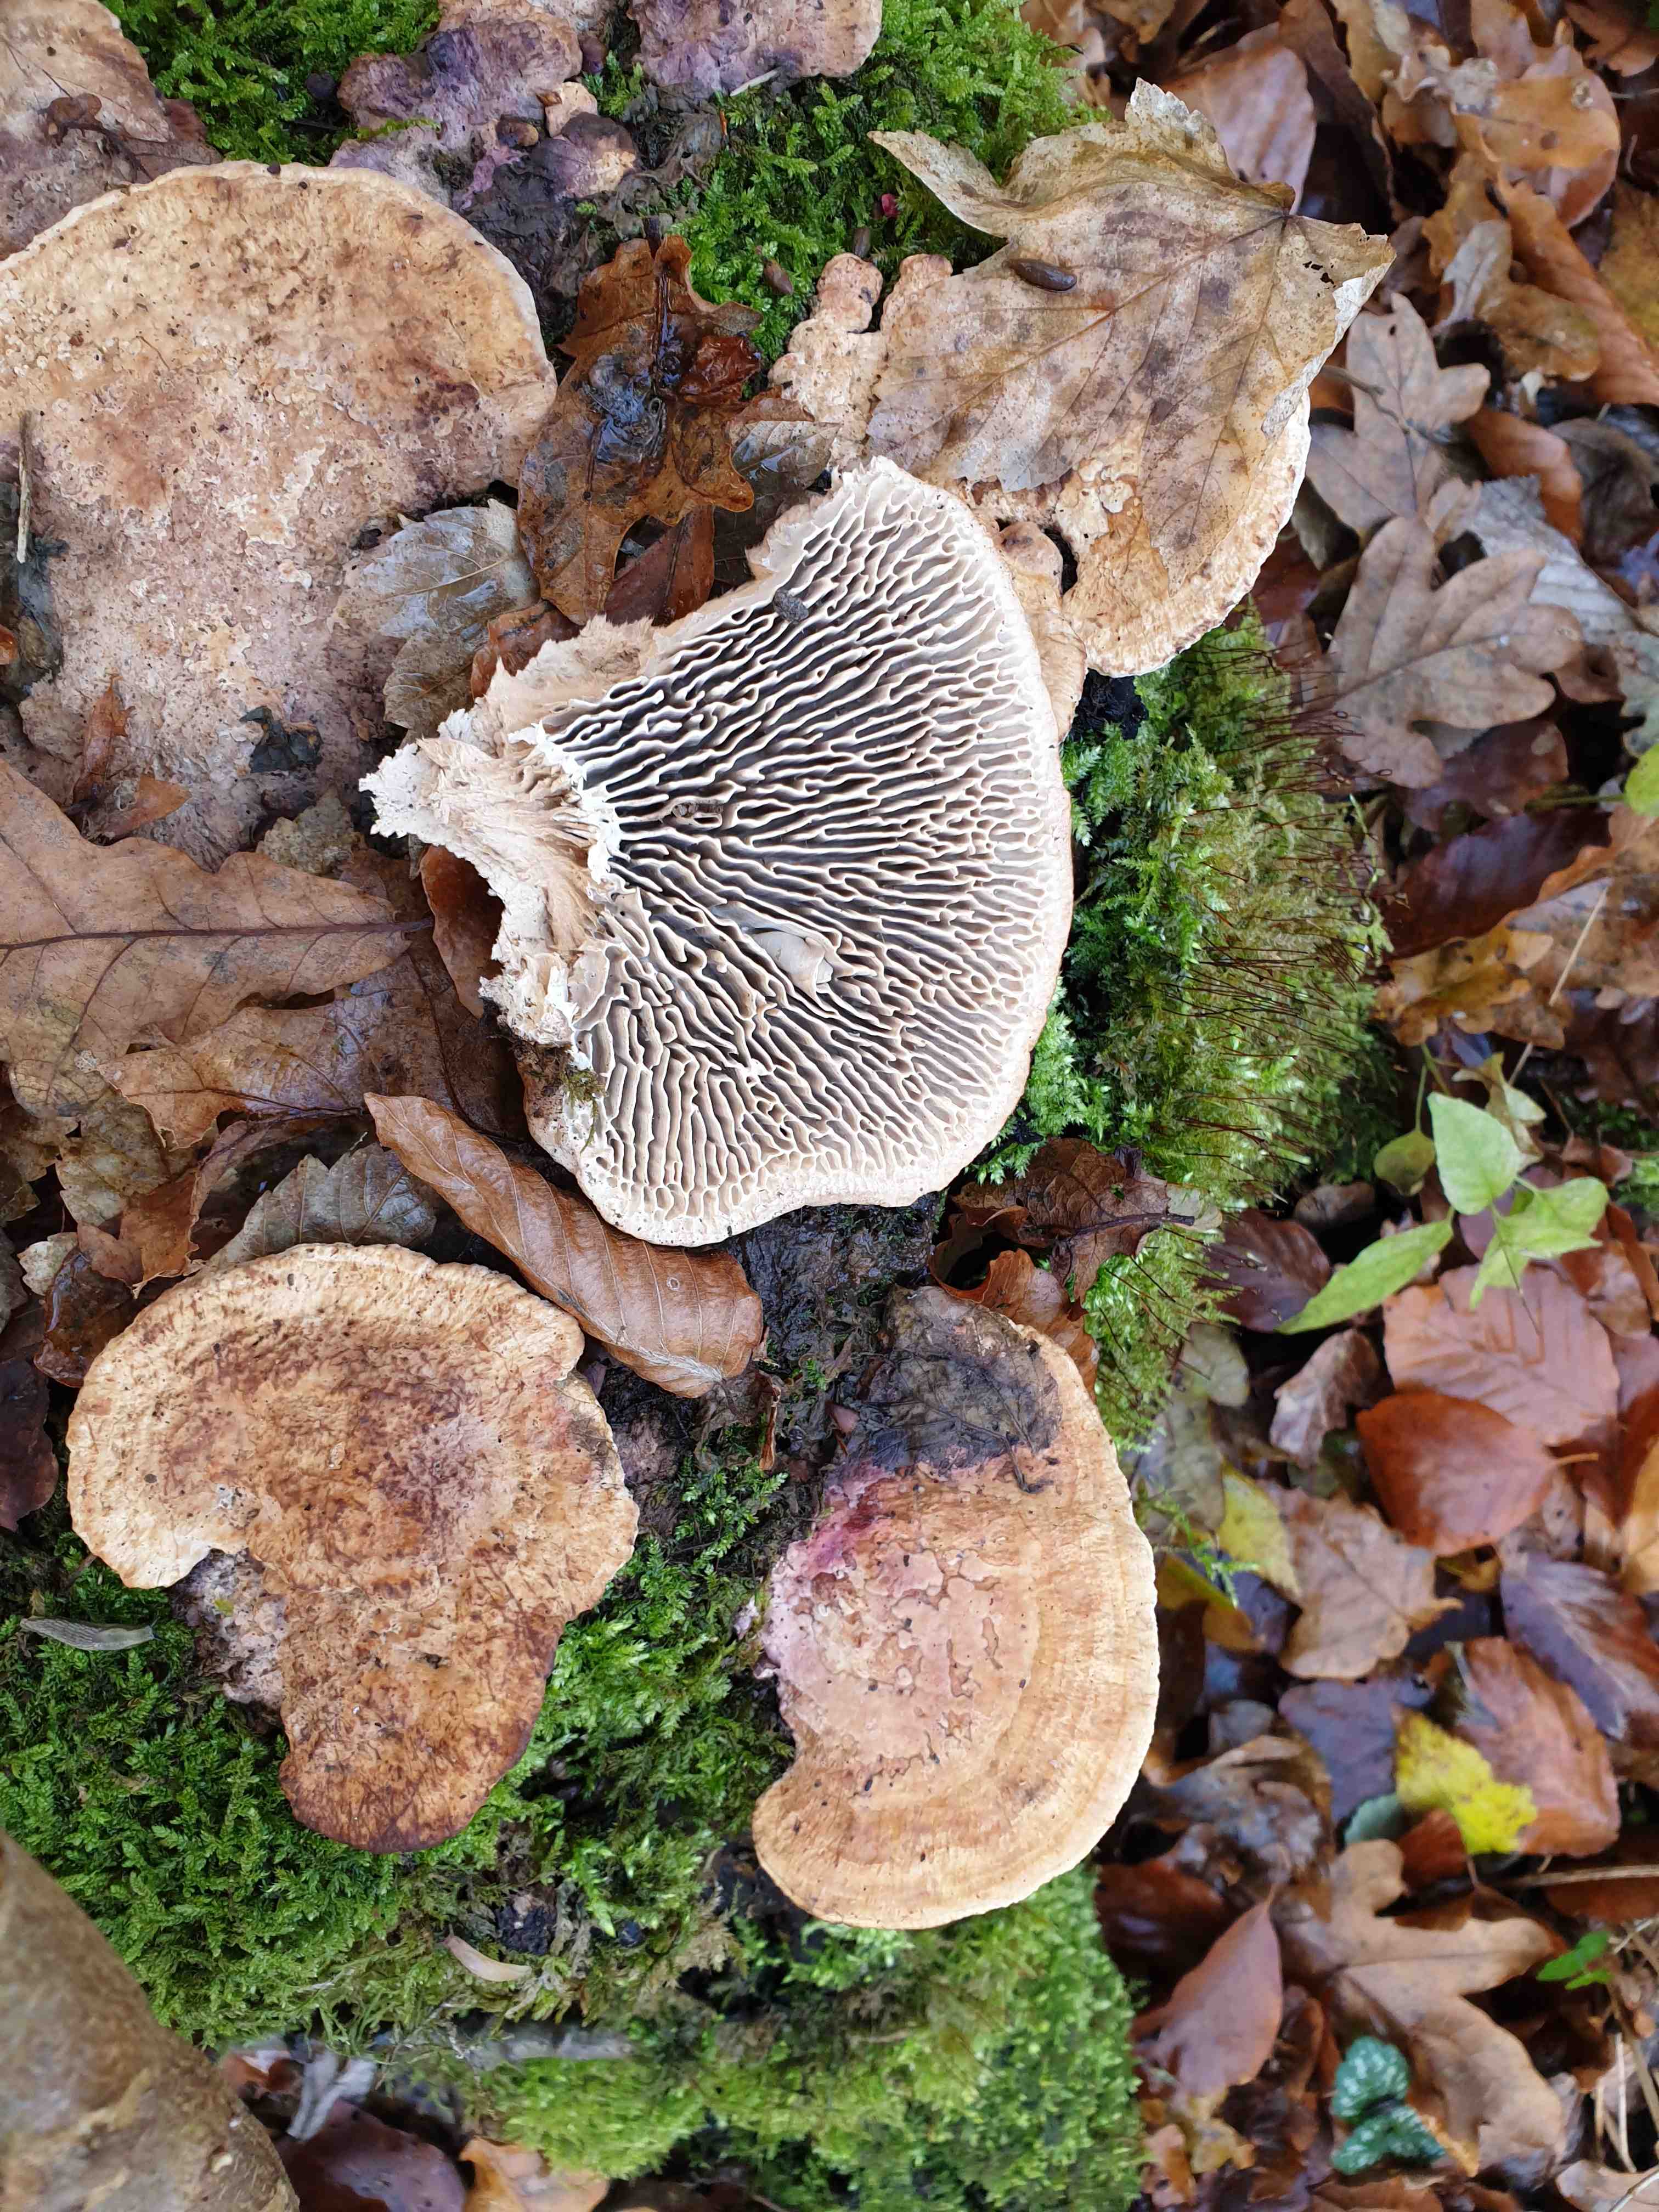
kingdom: Fungi
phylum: Basidiomycota
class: Agaricomycetes
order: Polyporales
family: Fomitopsidaceae
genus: Daedalea
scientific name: Daedalea quercina
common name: ege-labyrintsvamp
